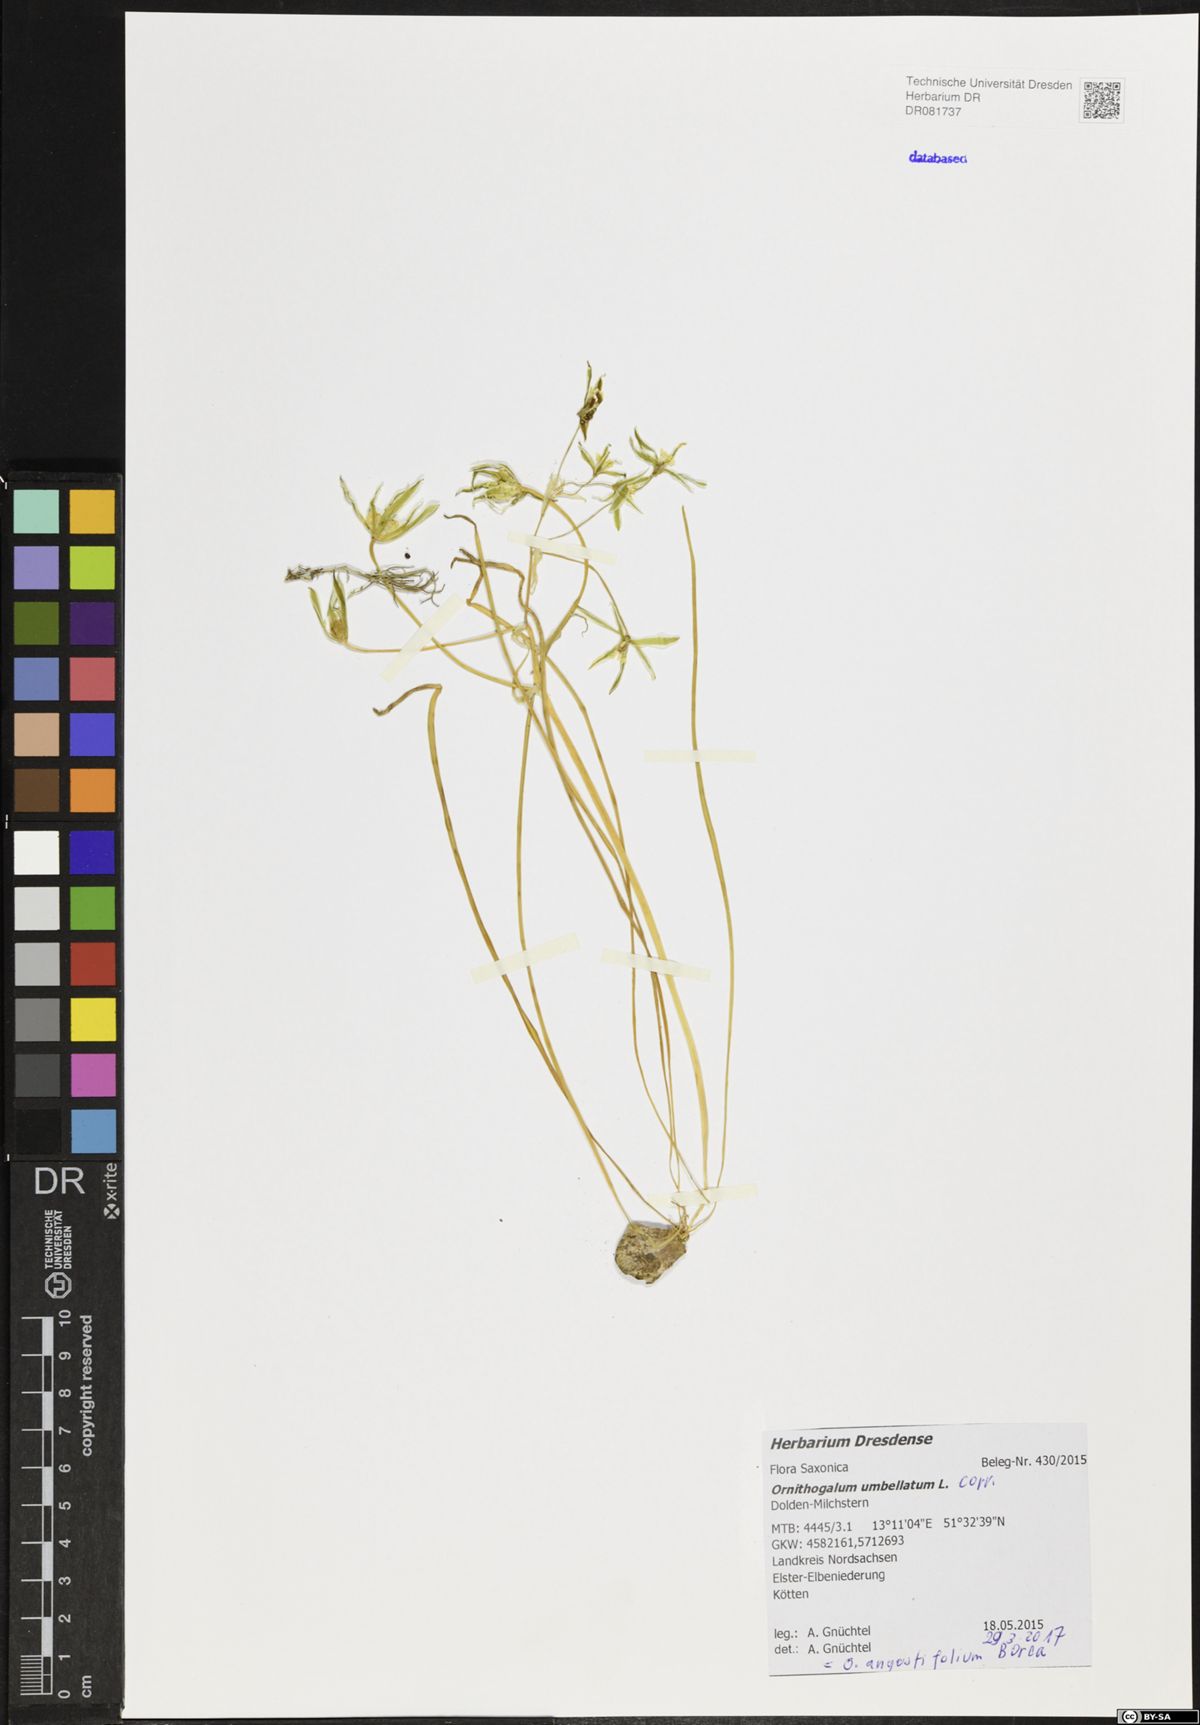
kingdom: Plantae
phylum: Tracheophyta
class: Liliopsida
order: Asparagales
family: Asparagaceae
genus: Ornithogalum
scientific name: Ornithogalum umbellatum
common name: Garden star-of-bethlehem
